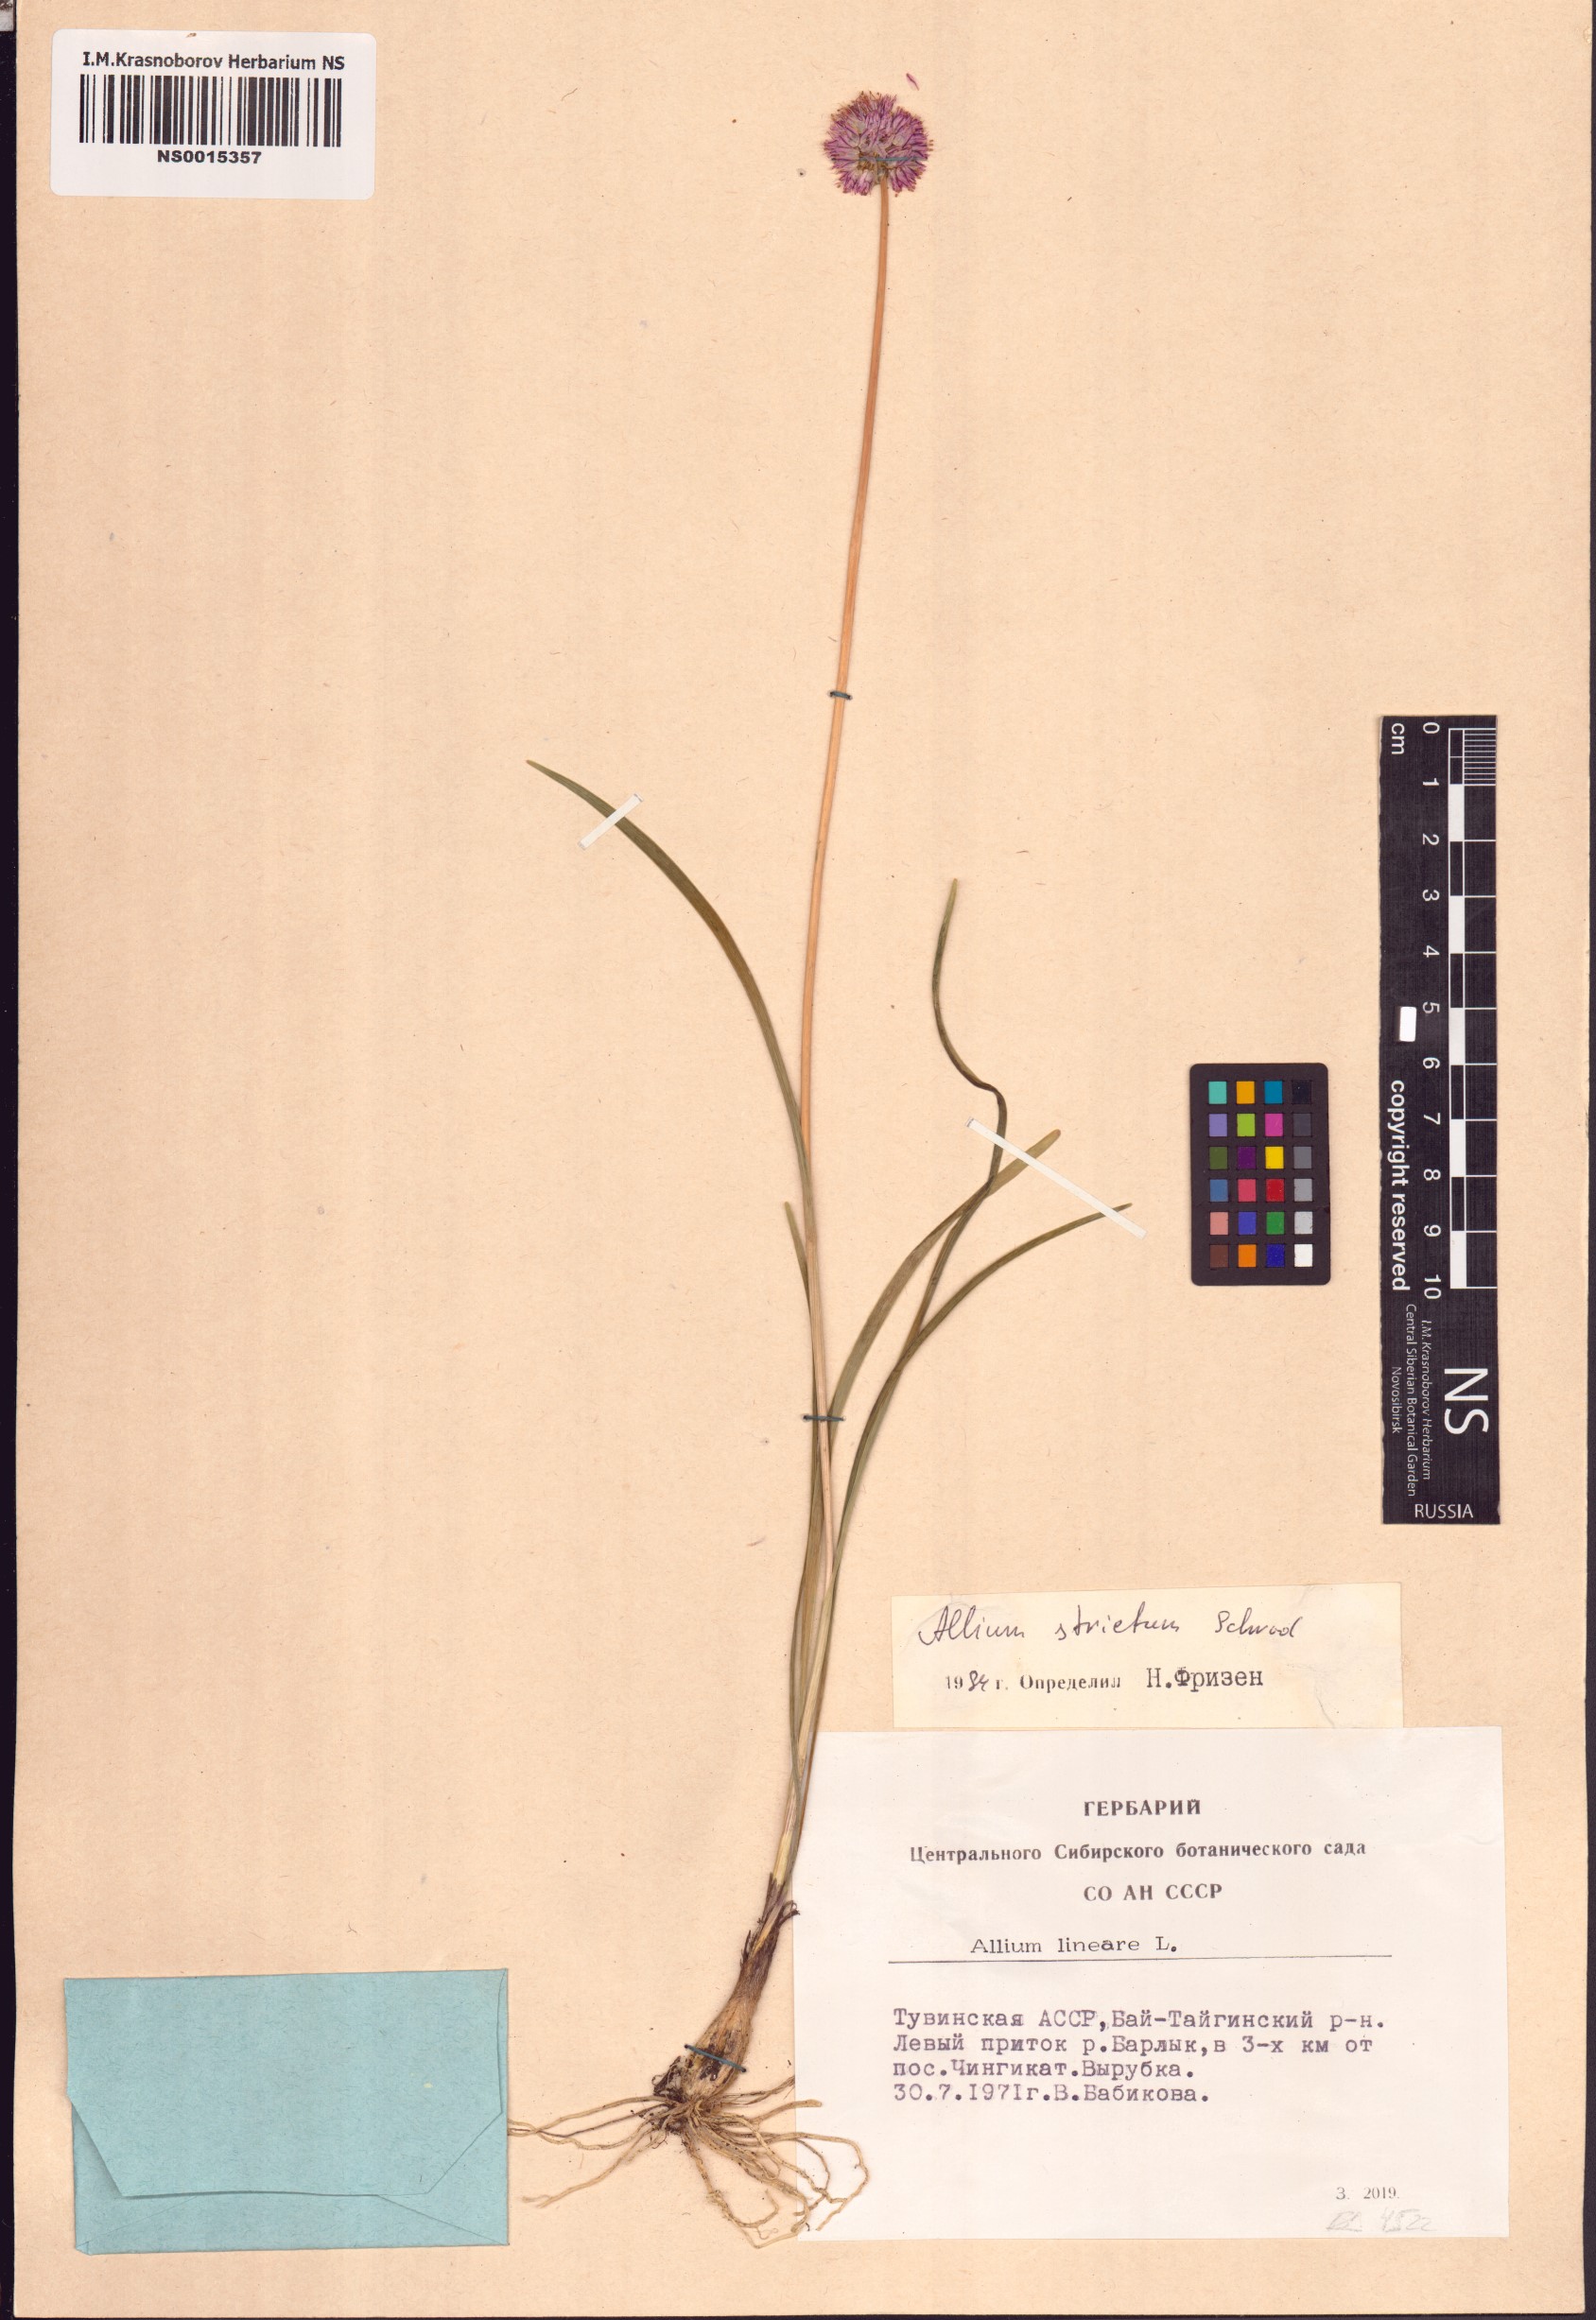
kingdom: Plantae
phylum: Tracheophyta
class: Liliopsida
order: Asparagales
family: Amaryllidaceae
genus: Allium
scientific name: Allium strictum
